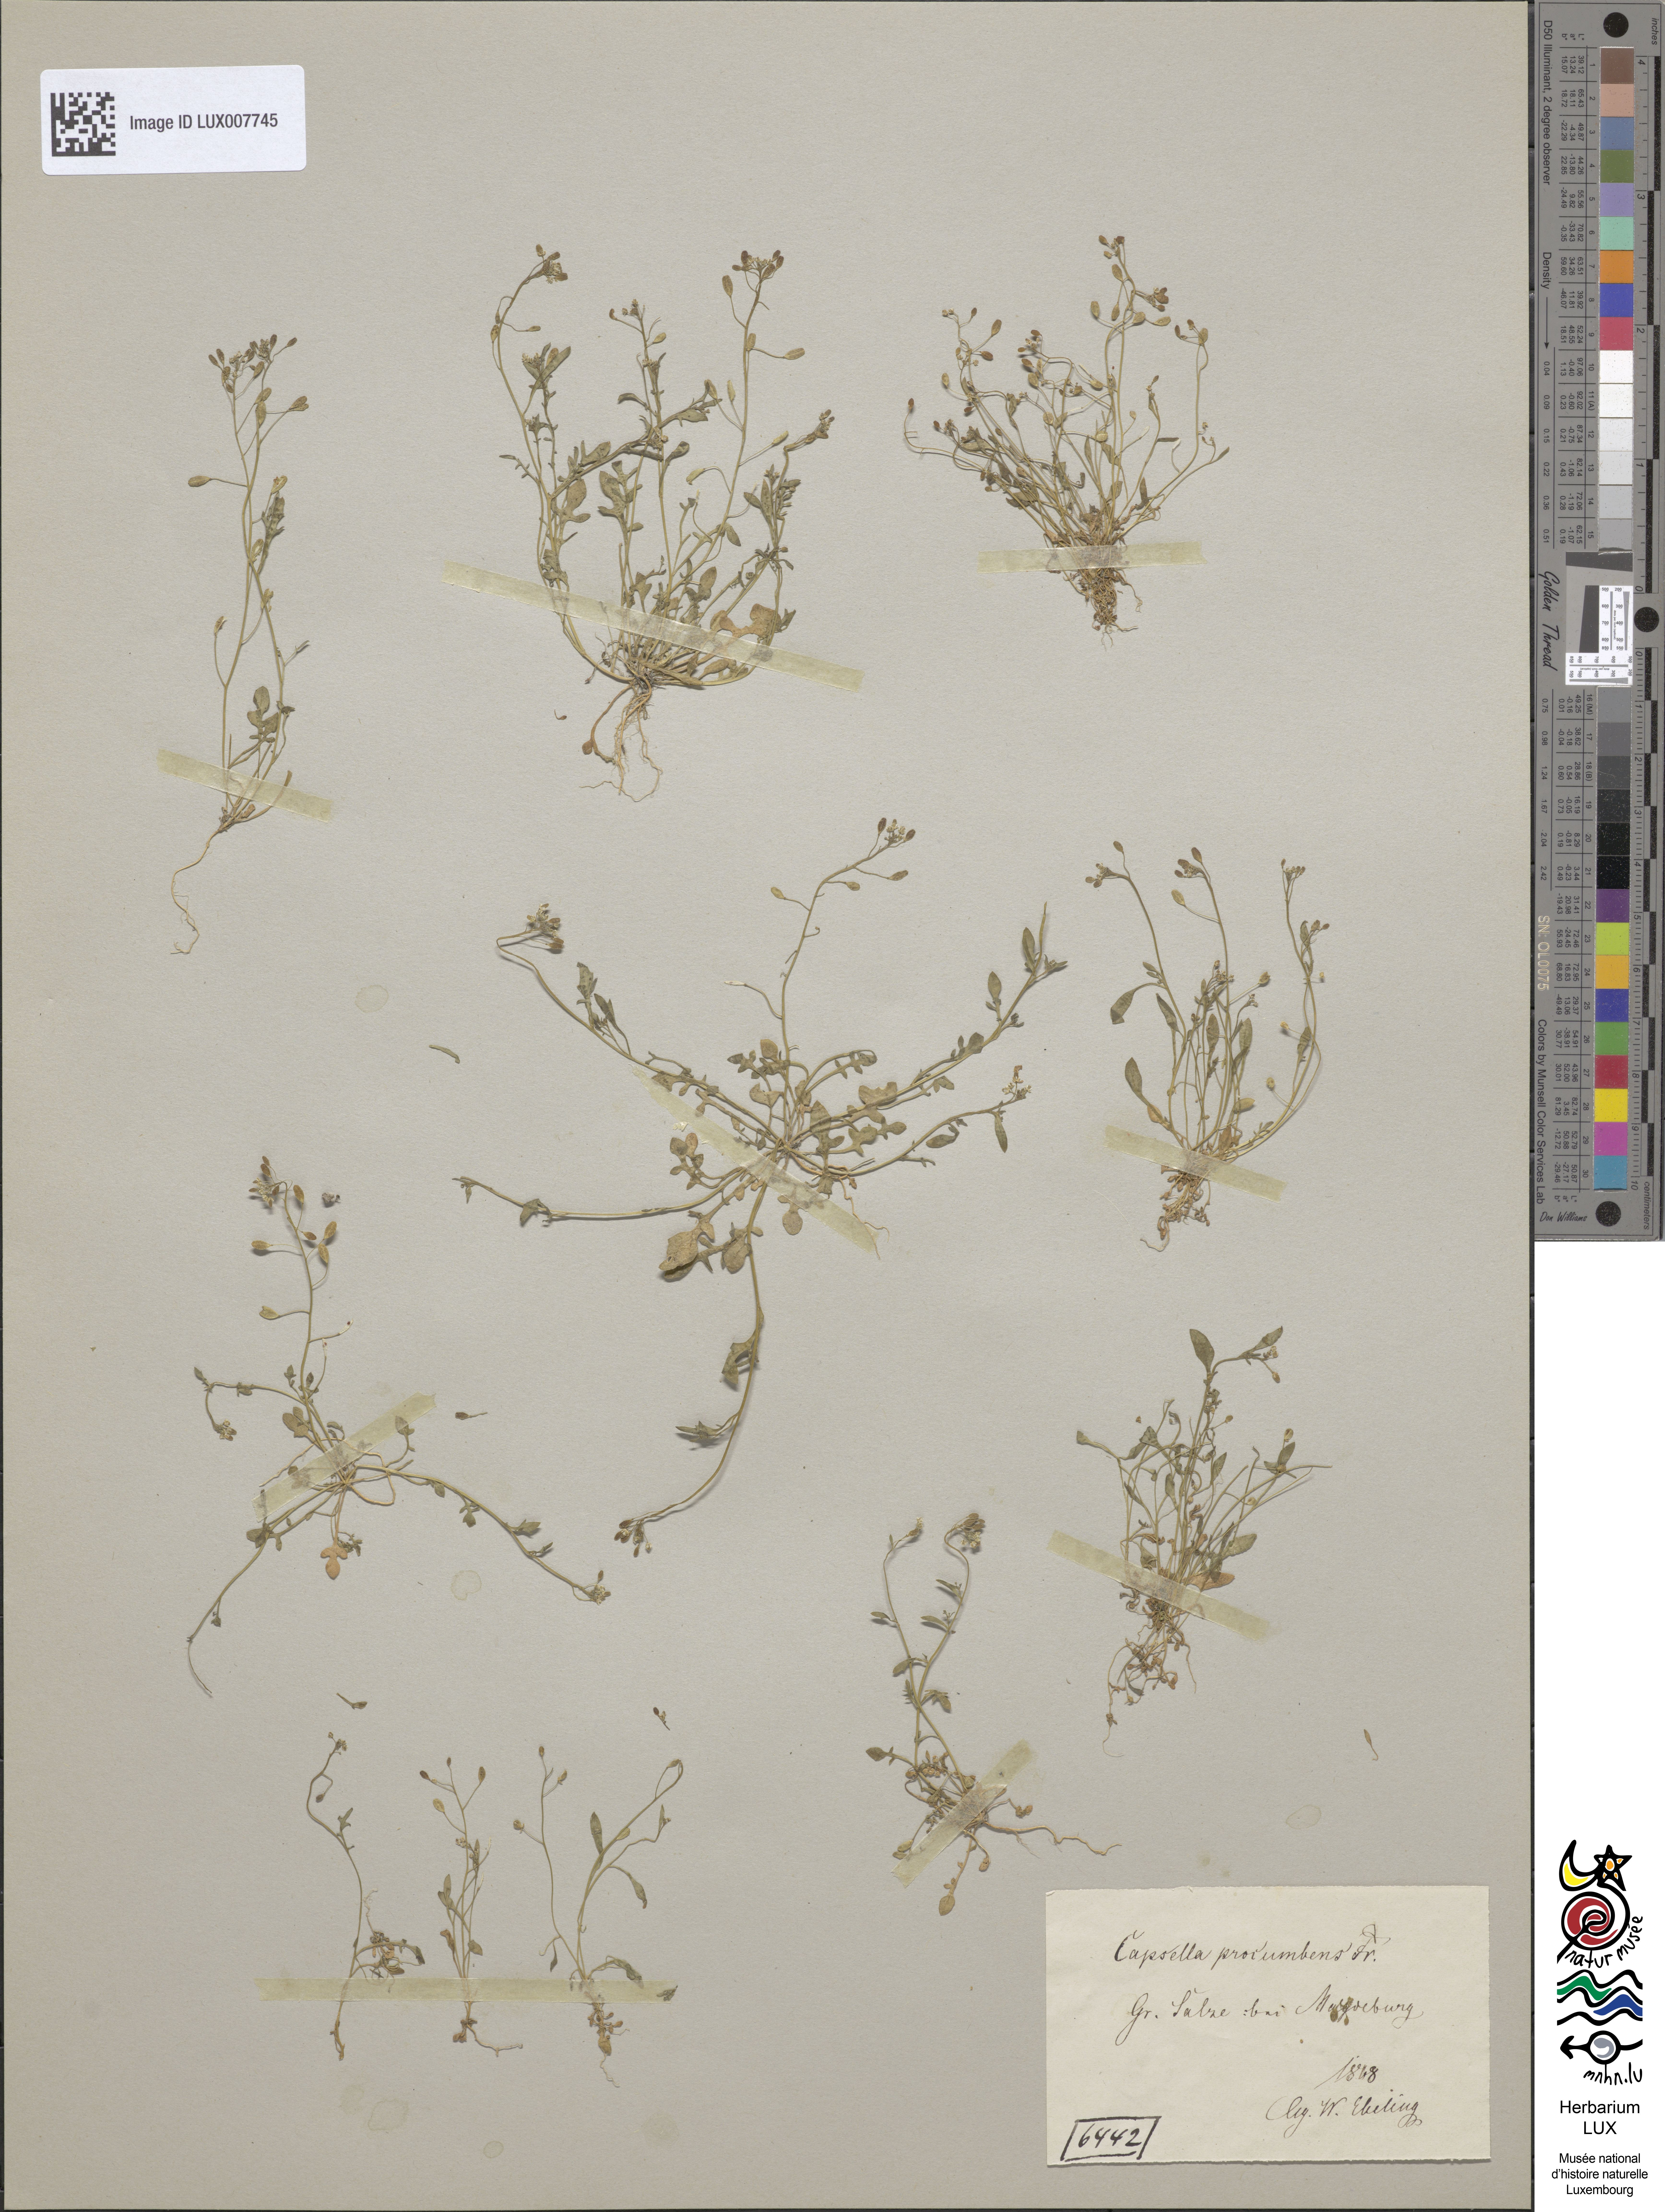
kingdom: Plantae
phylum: Tracheophyta
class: Magnoliopsida
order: Brassicales
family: Brassicaceae
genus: Hornungia
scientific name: Hornungia procumbens
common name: Oval purse
